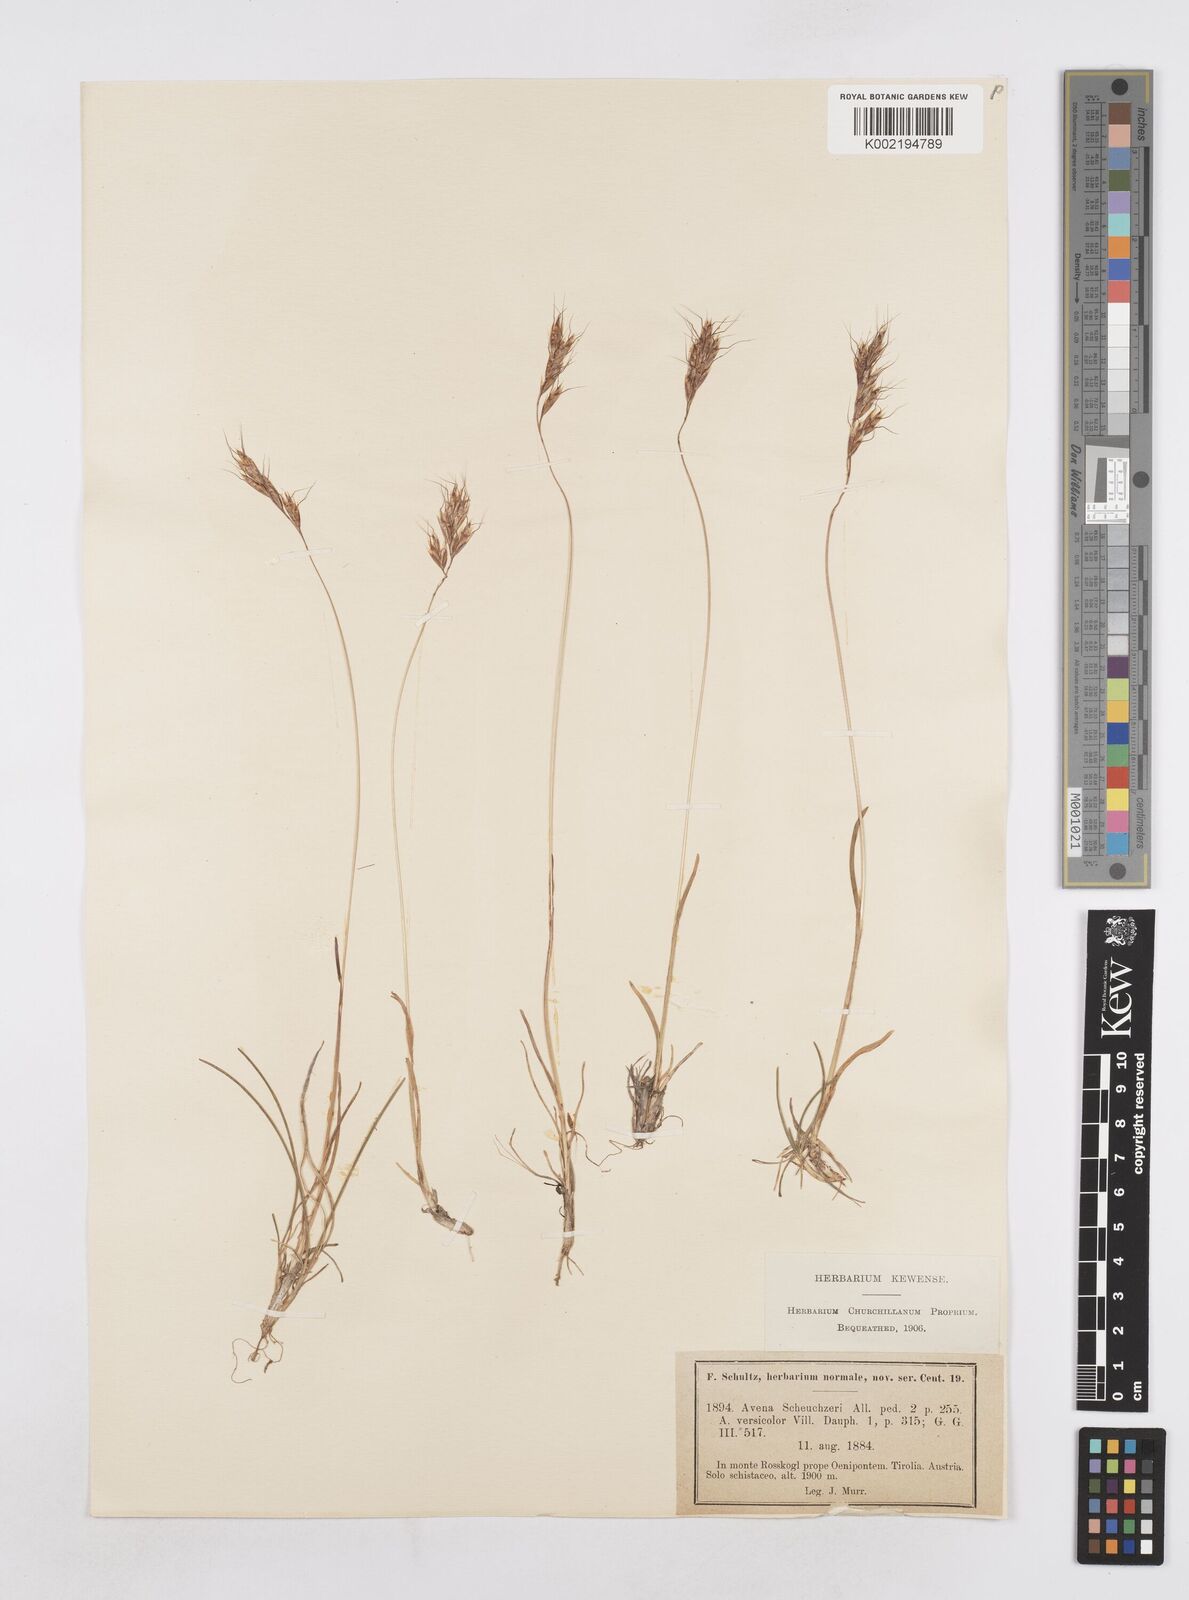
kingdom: Plantae
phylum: Tracheophyta
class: Liliopsida
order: Poales
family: Poaceae
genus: Helictochloa
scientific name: Helictochloa versicolor
